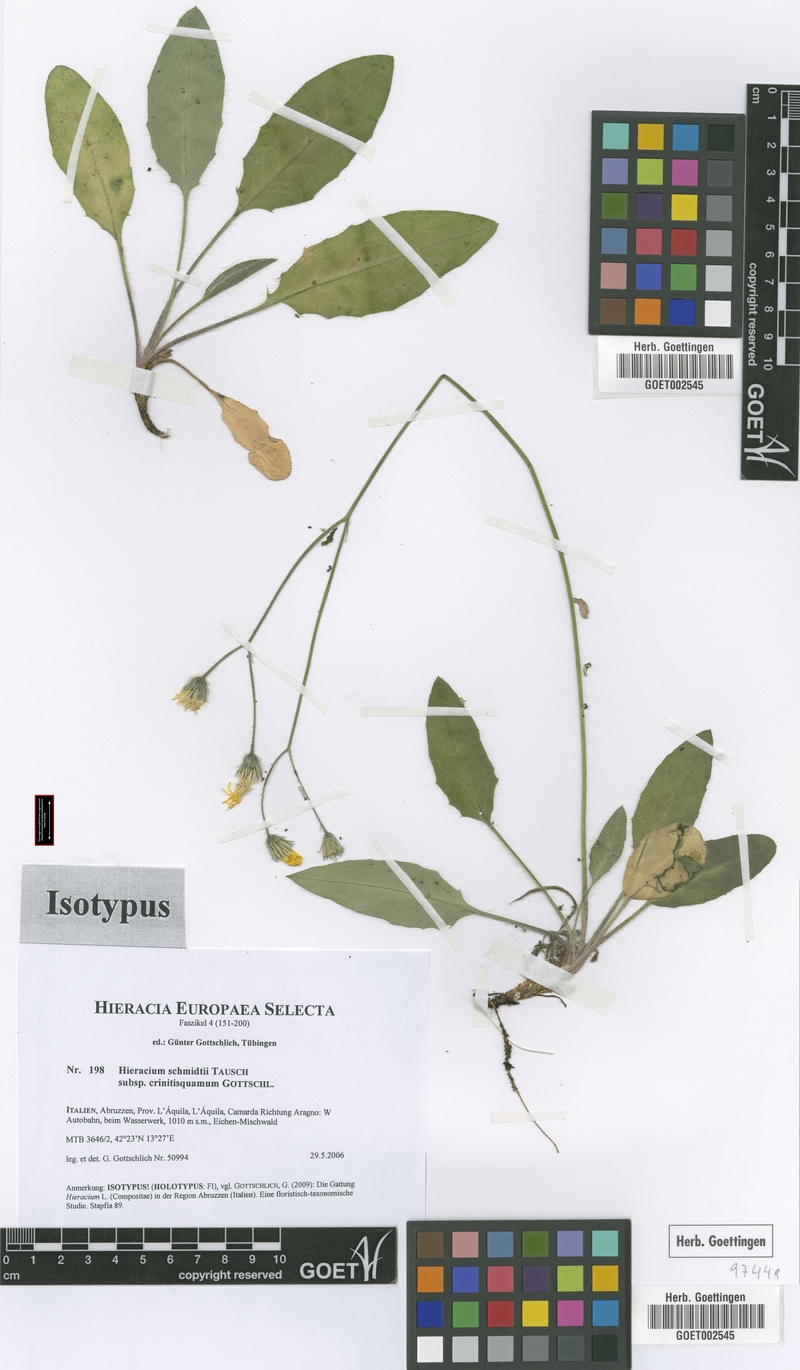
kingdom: Plantae
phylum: Tracheophyta
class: Magnoliopsida
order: Asterales
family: Asteraceae
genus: Hieracium
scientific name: Hieracium schmidtii
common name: Schmidt's hawkweed
